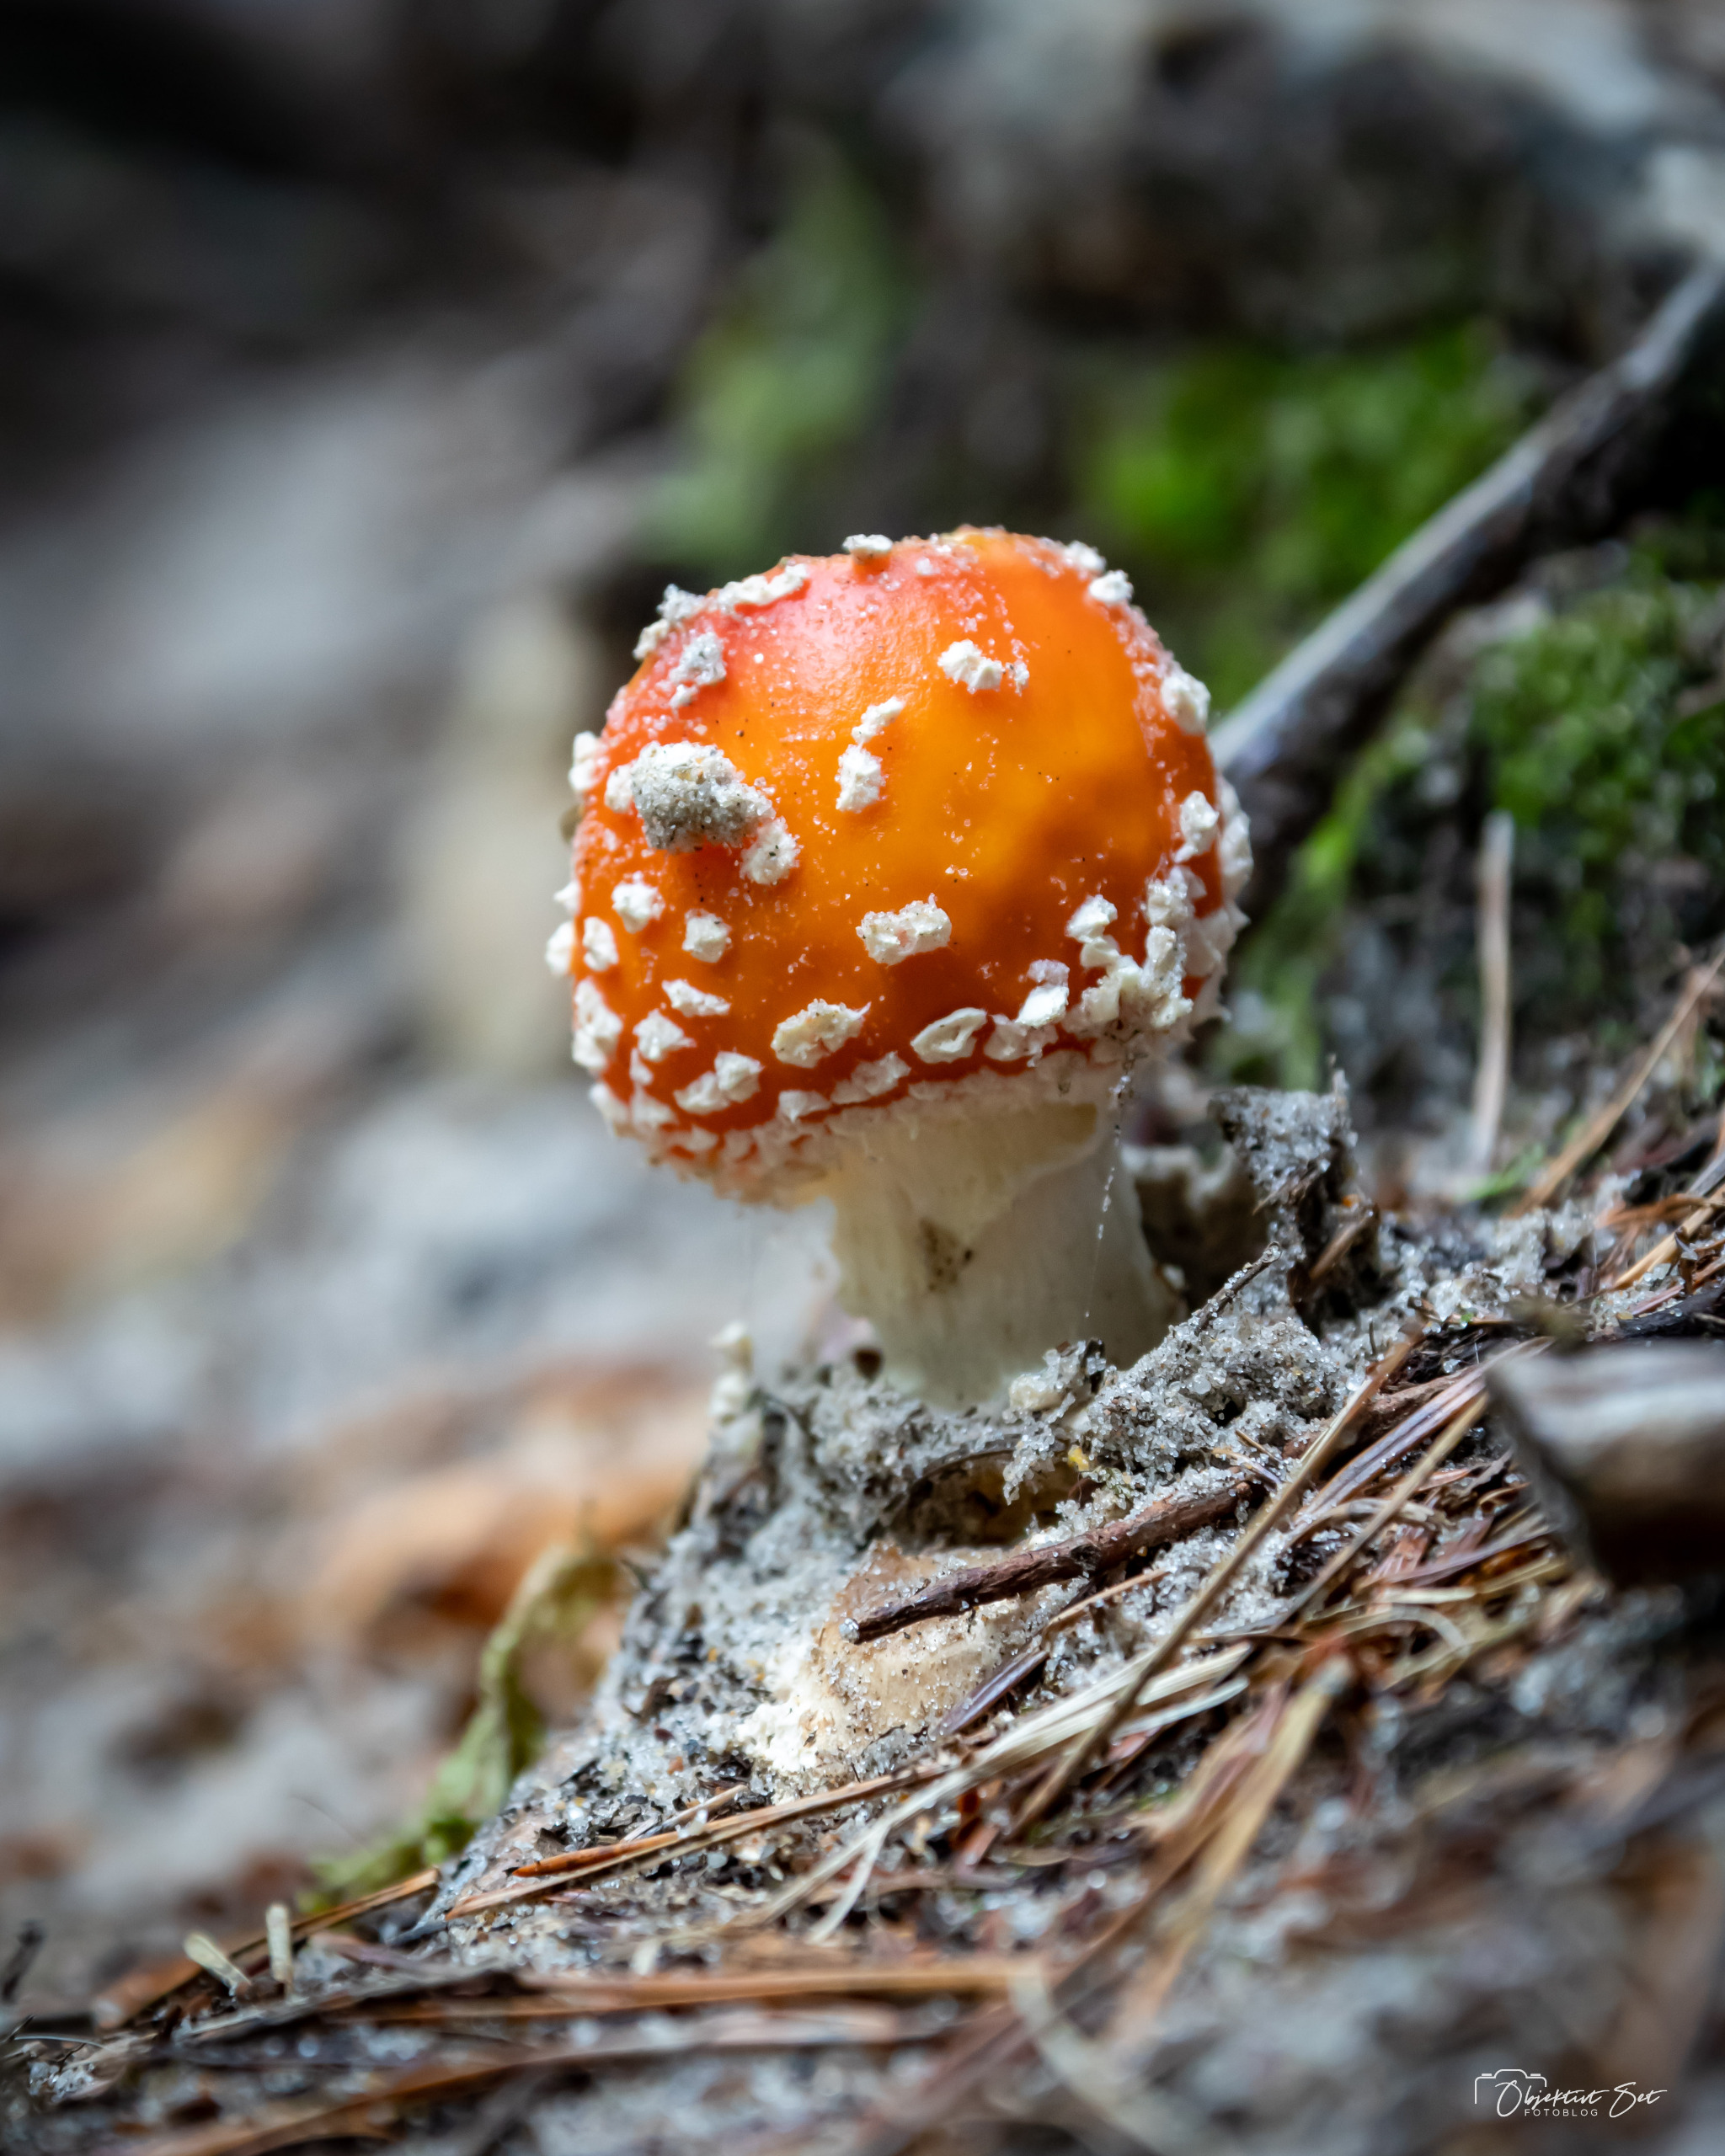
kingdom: Fungi
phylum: Basidiomycota
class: Agaricomycetes
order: Agaricales
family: Amanitaceae
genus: Amanita
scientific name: Amanita muscaria
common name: Rød fluesvamp
